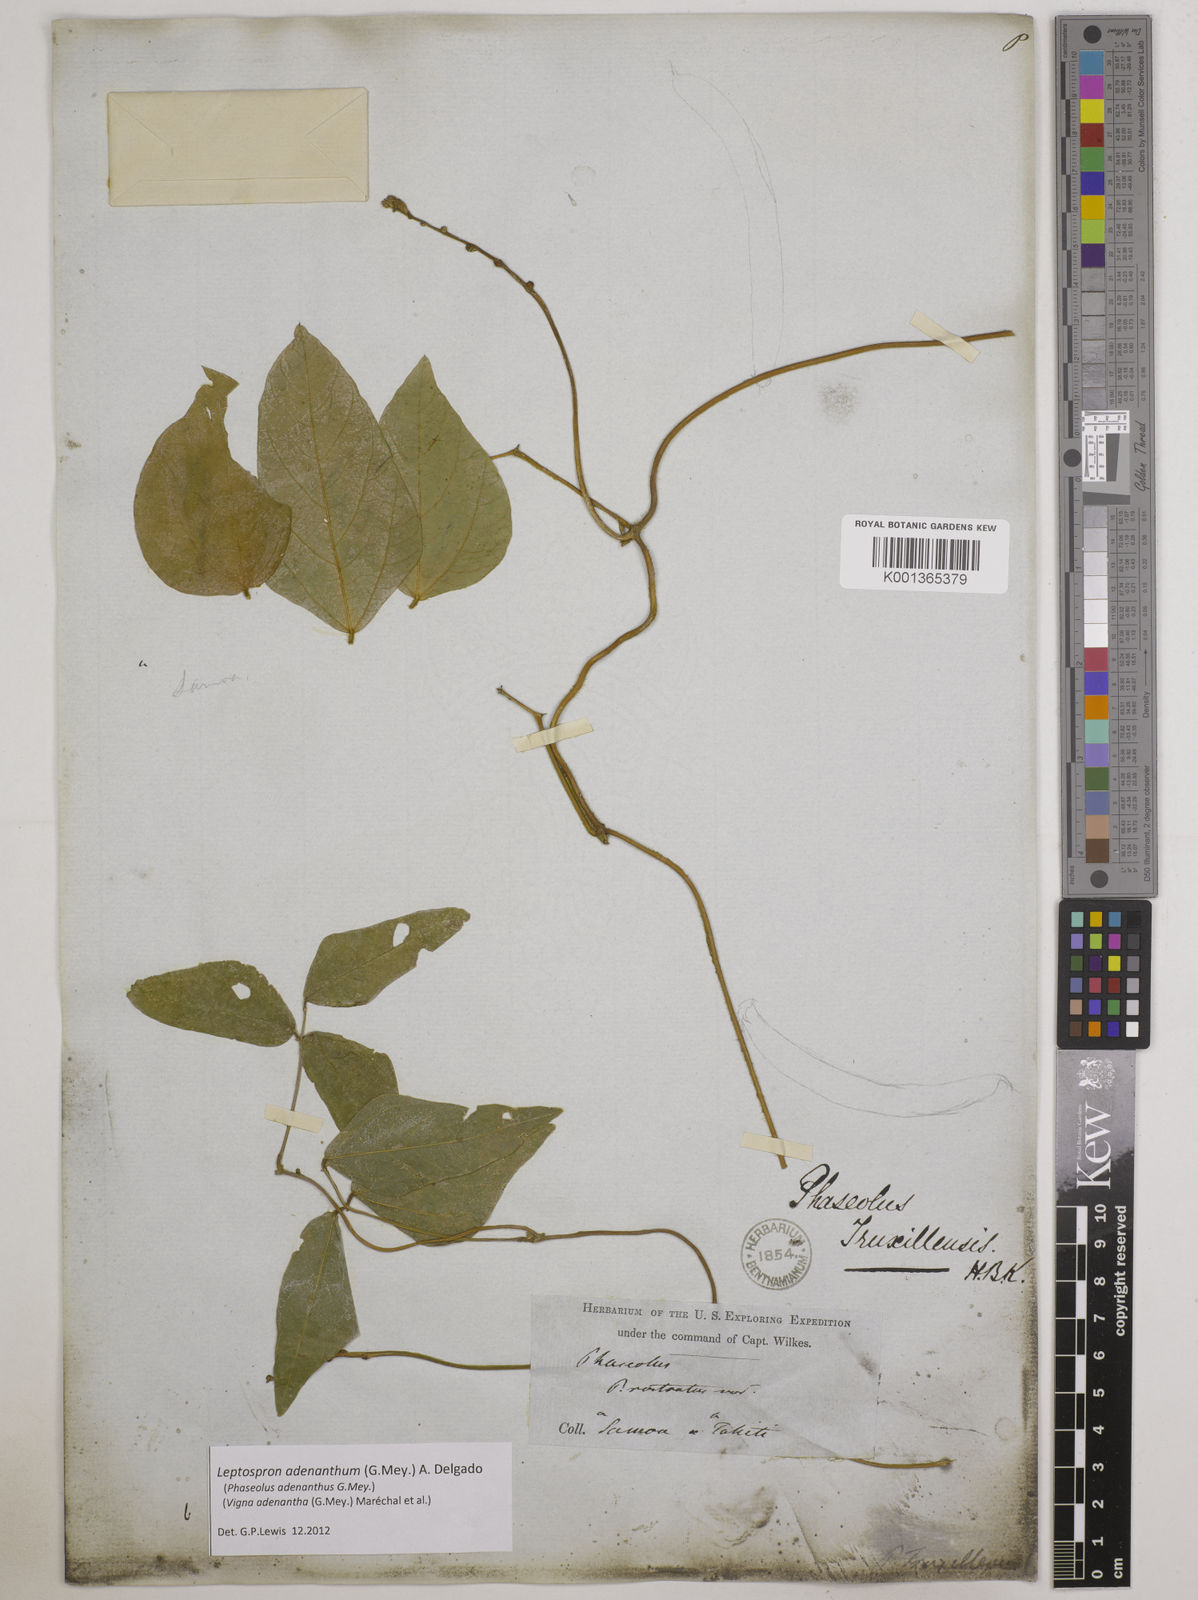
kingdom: Plantae
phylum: Tracheophyta
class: Magnoliopsida
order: Fabales
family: Fabaceae
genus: Leptospron
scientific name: Leptospron adenanthum
